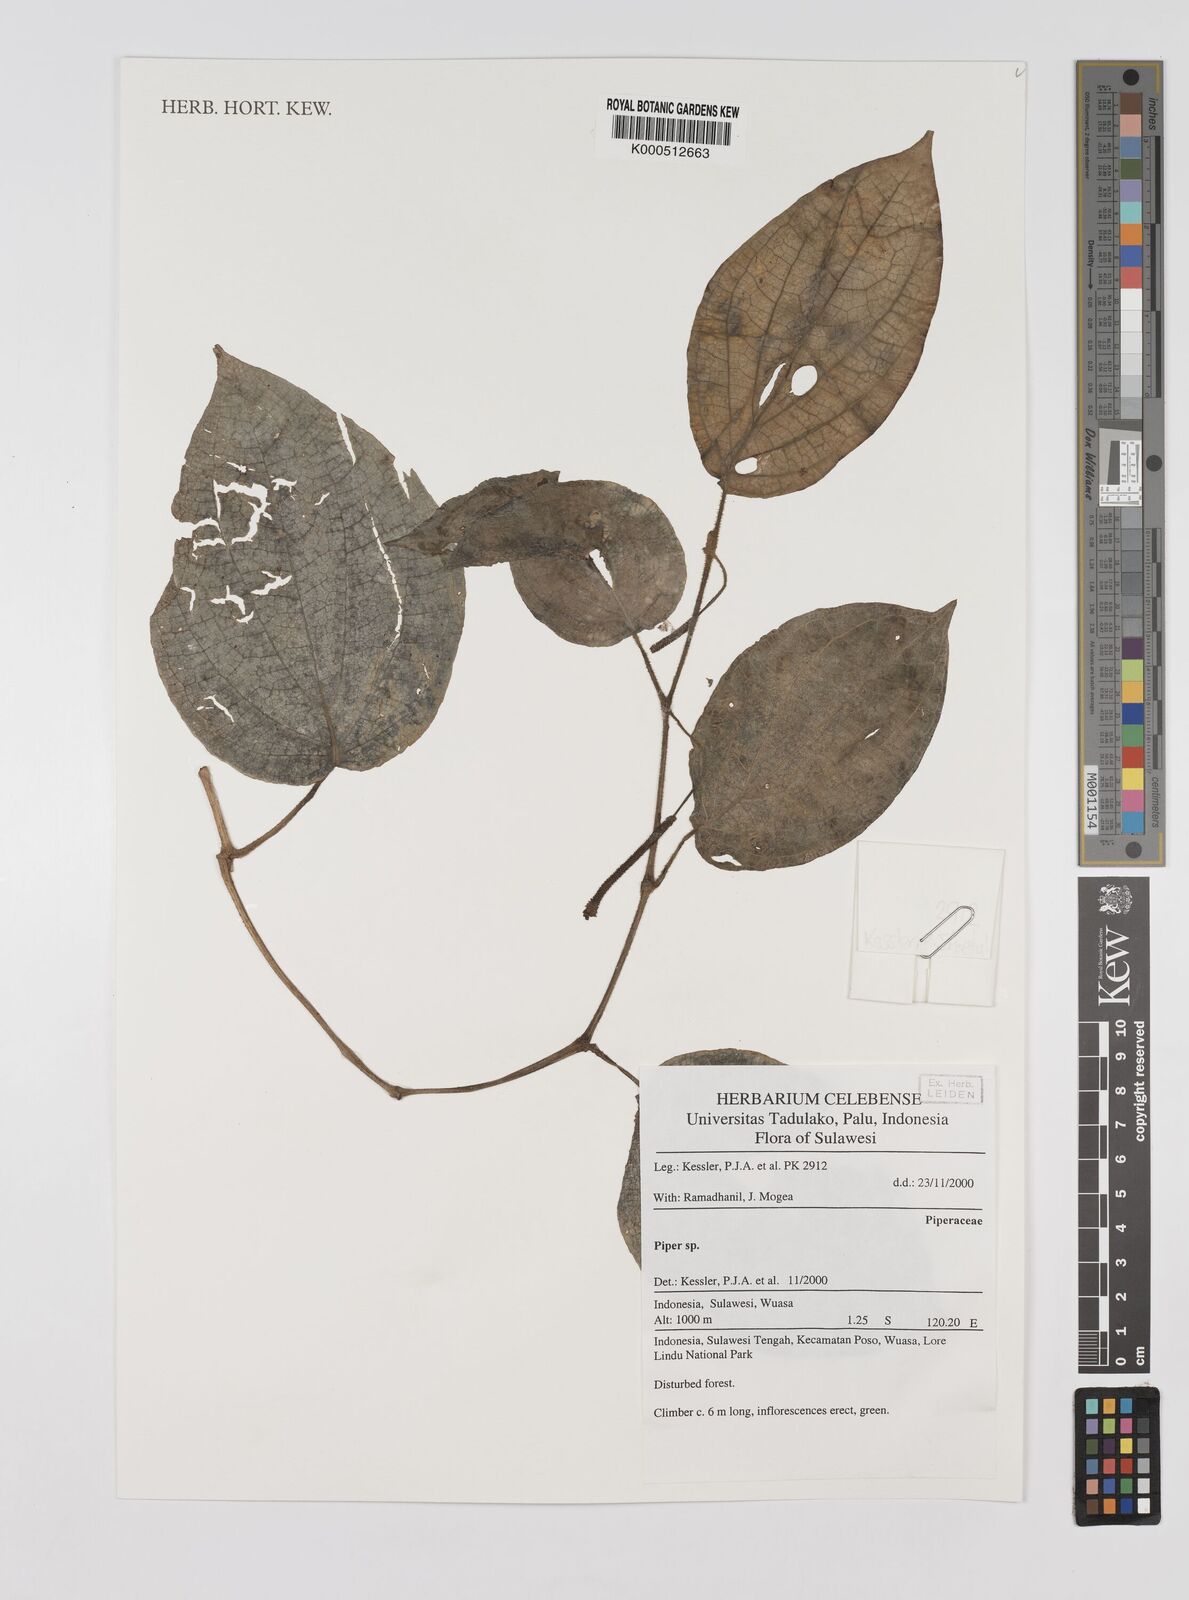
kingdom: Plantae
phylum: Tracheophyta
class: Magnoliopsida
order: Piperales
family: Piperaceae
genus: Piper
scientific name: Piper
